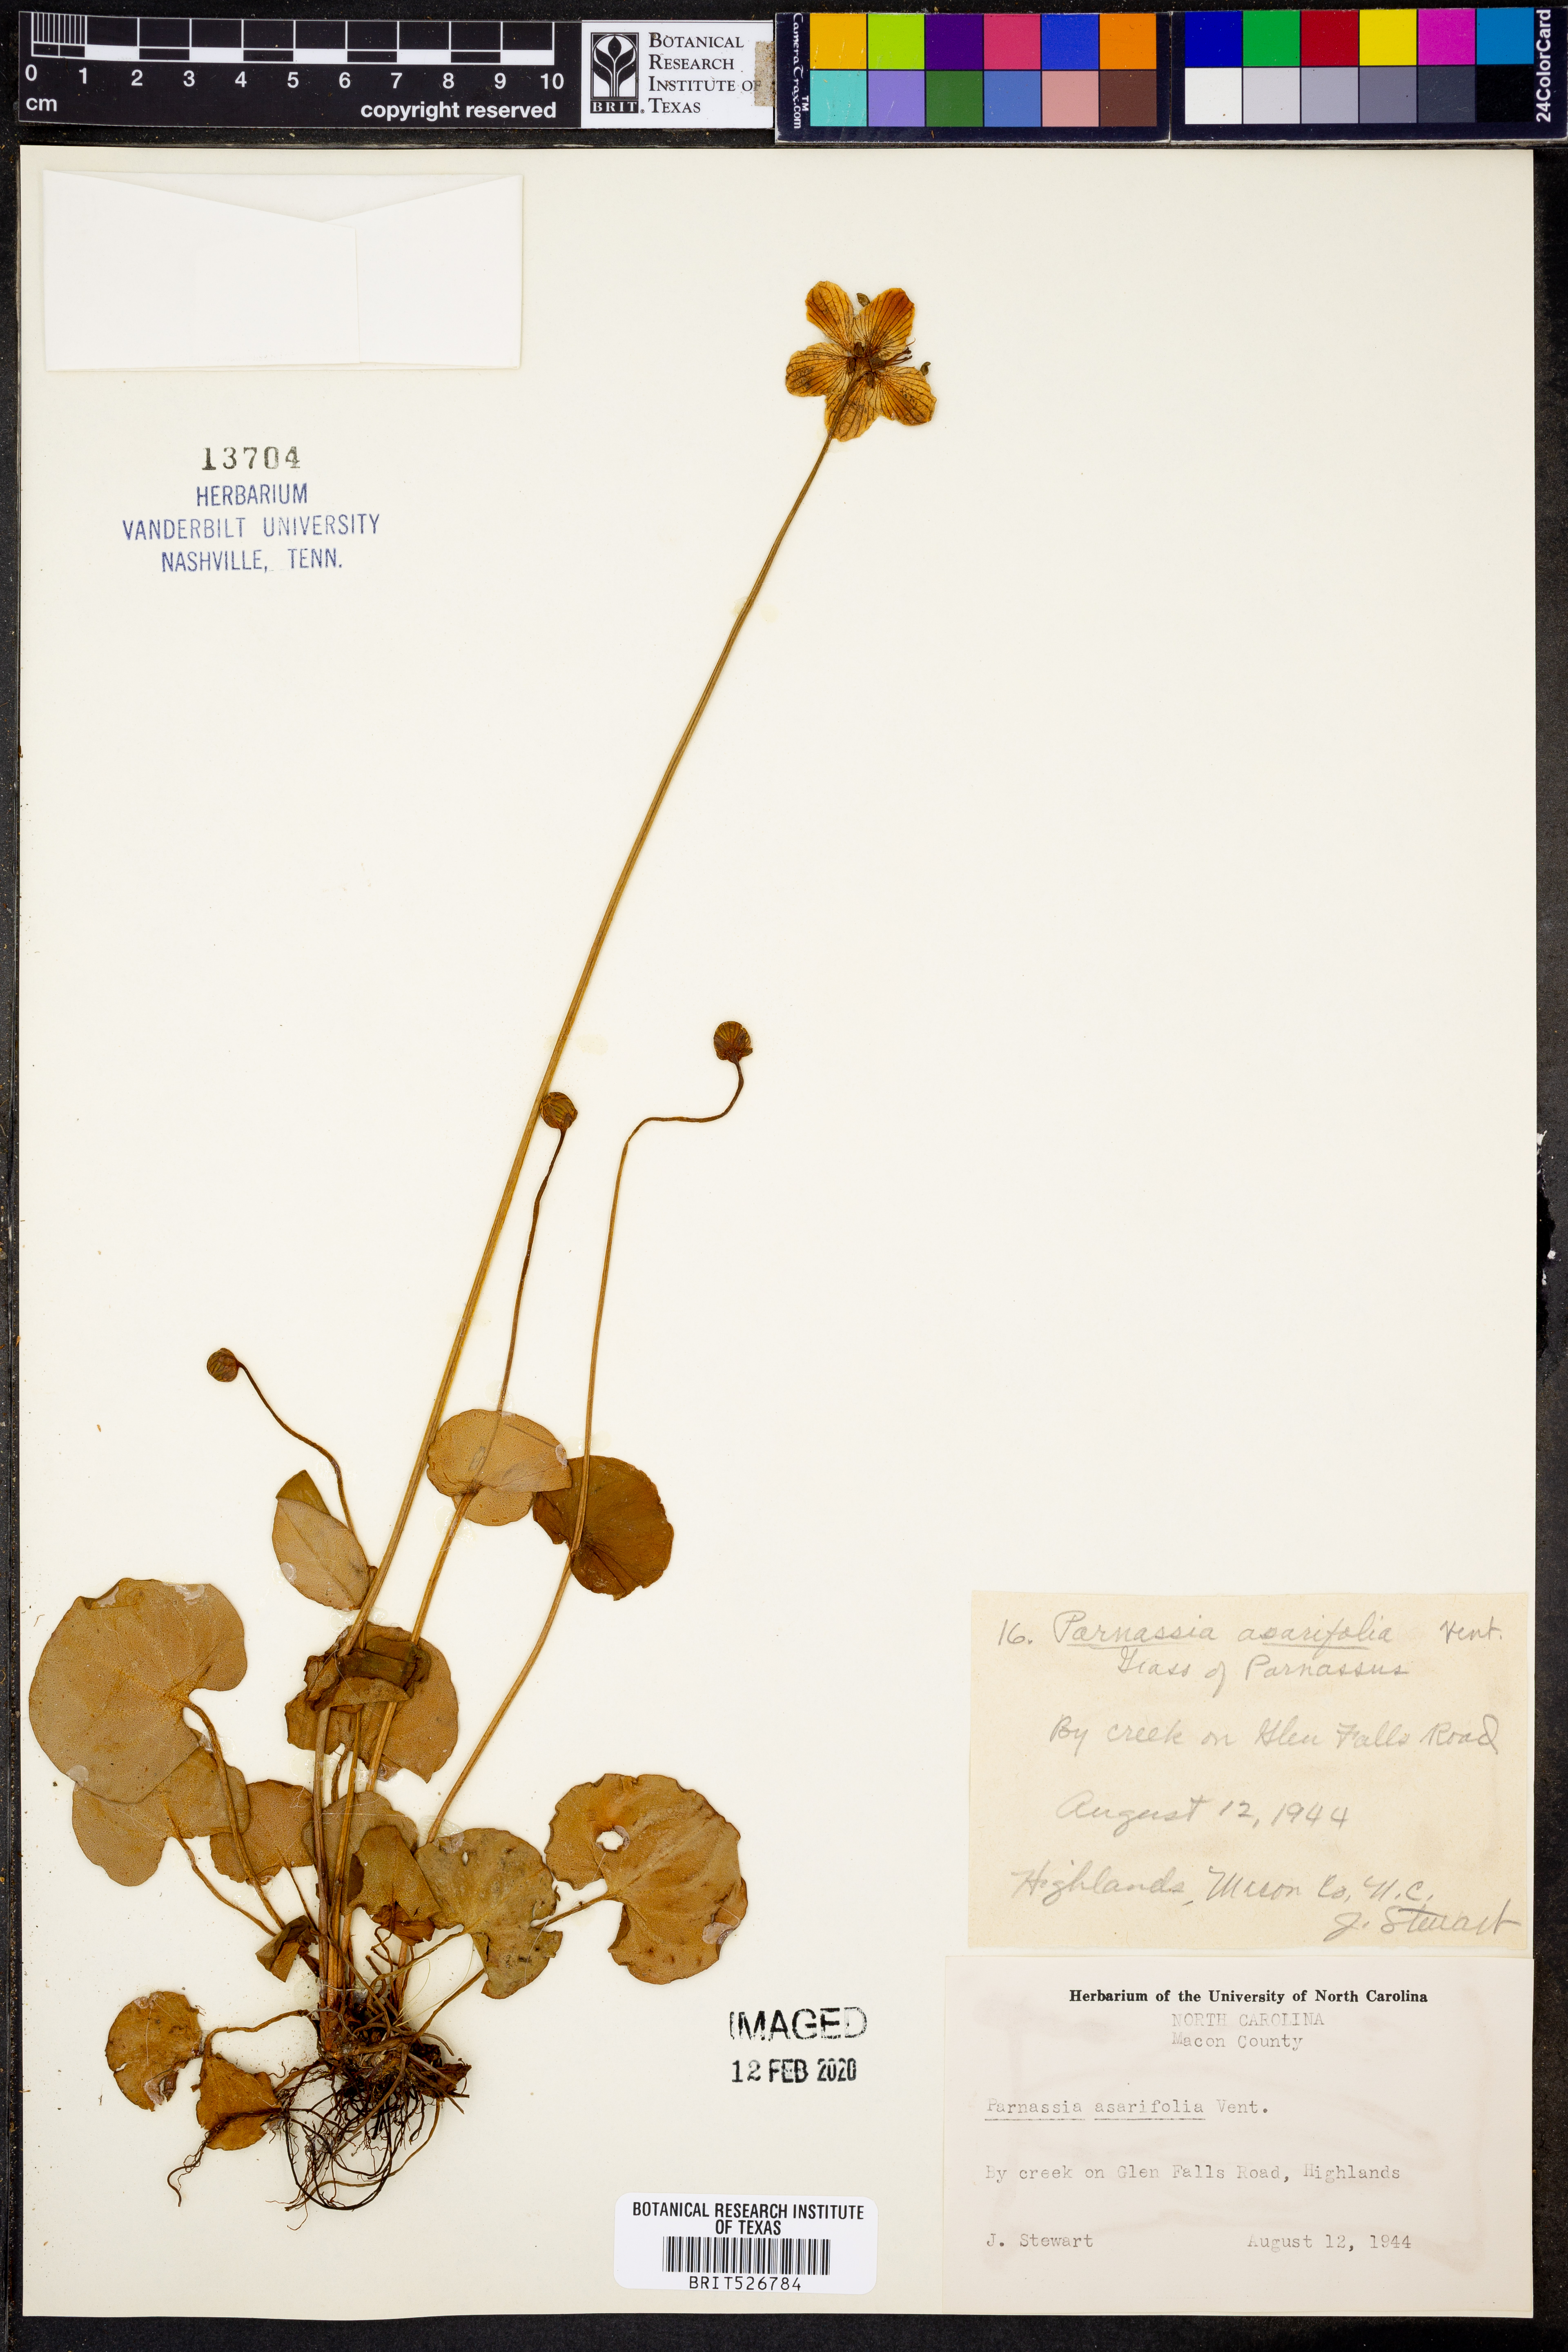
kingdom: Plantae
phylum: Tracheophyta
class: Magnoliopsida
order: Celastrales
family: Parnassiaceae
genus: Parnassia
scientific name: Parnassia asarifolia
